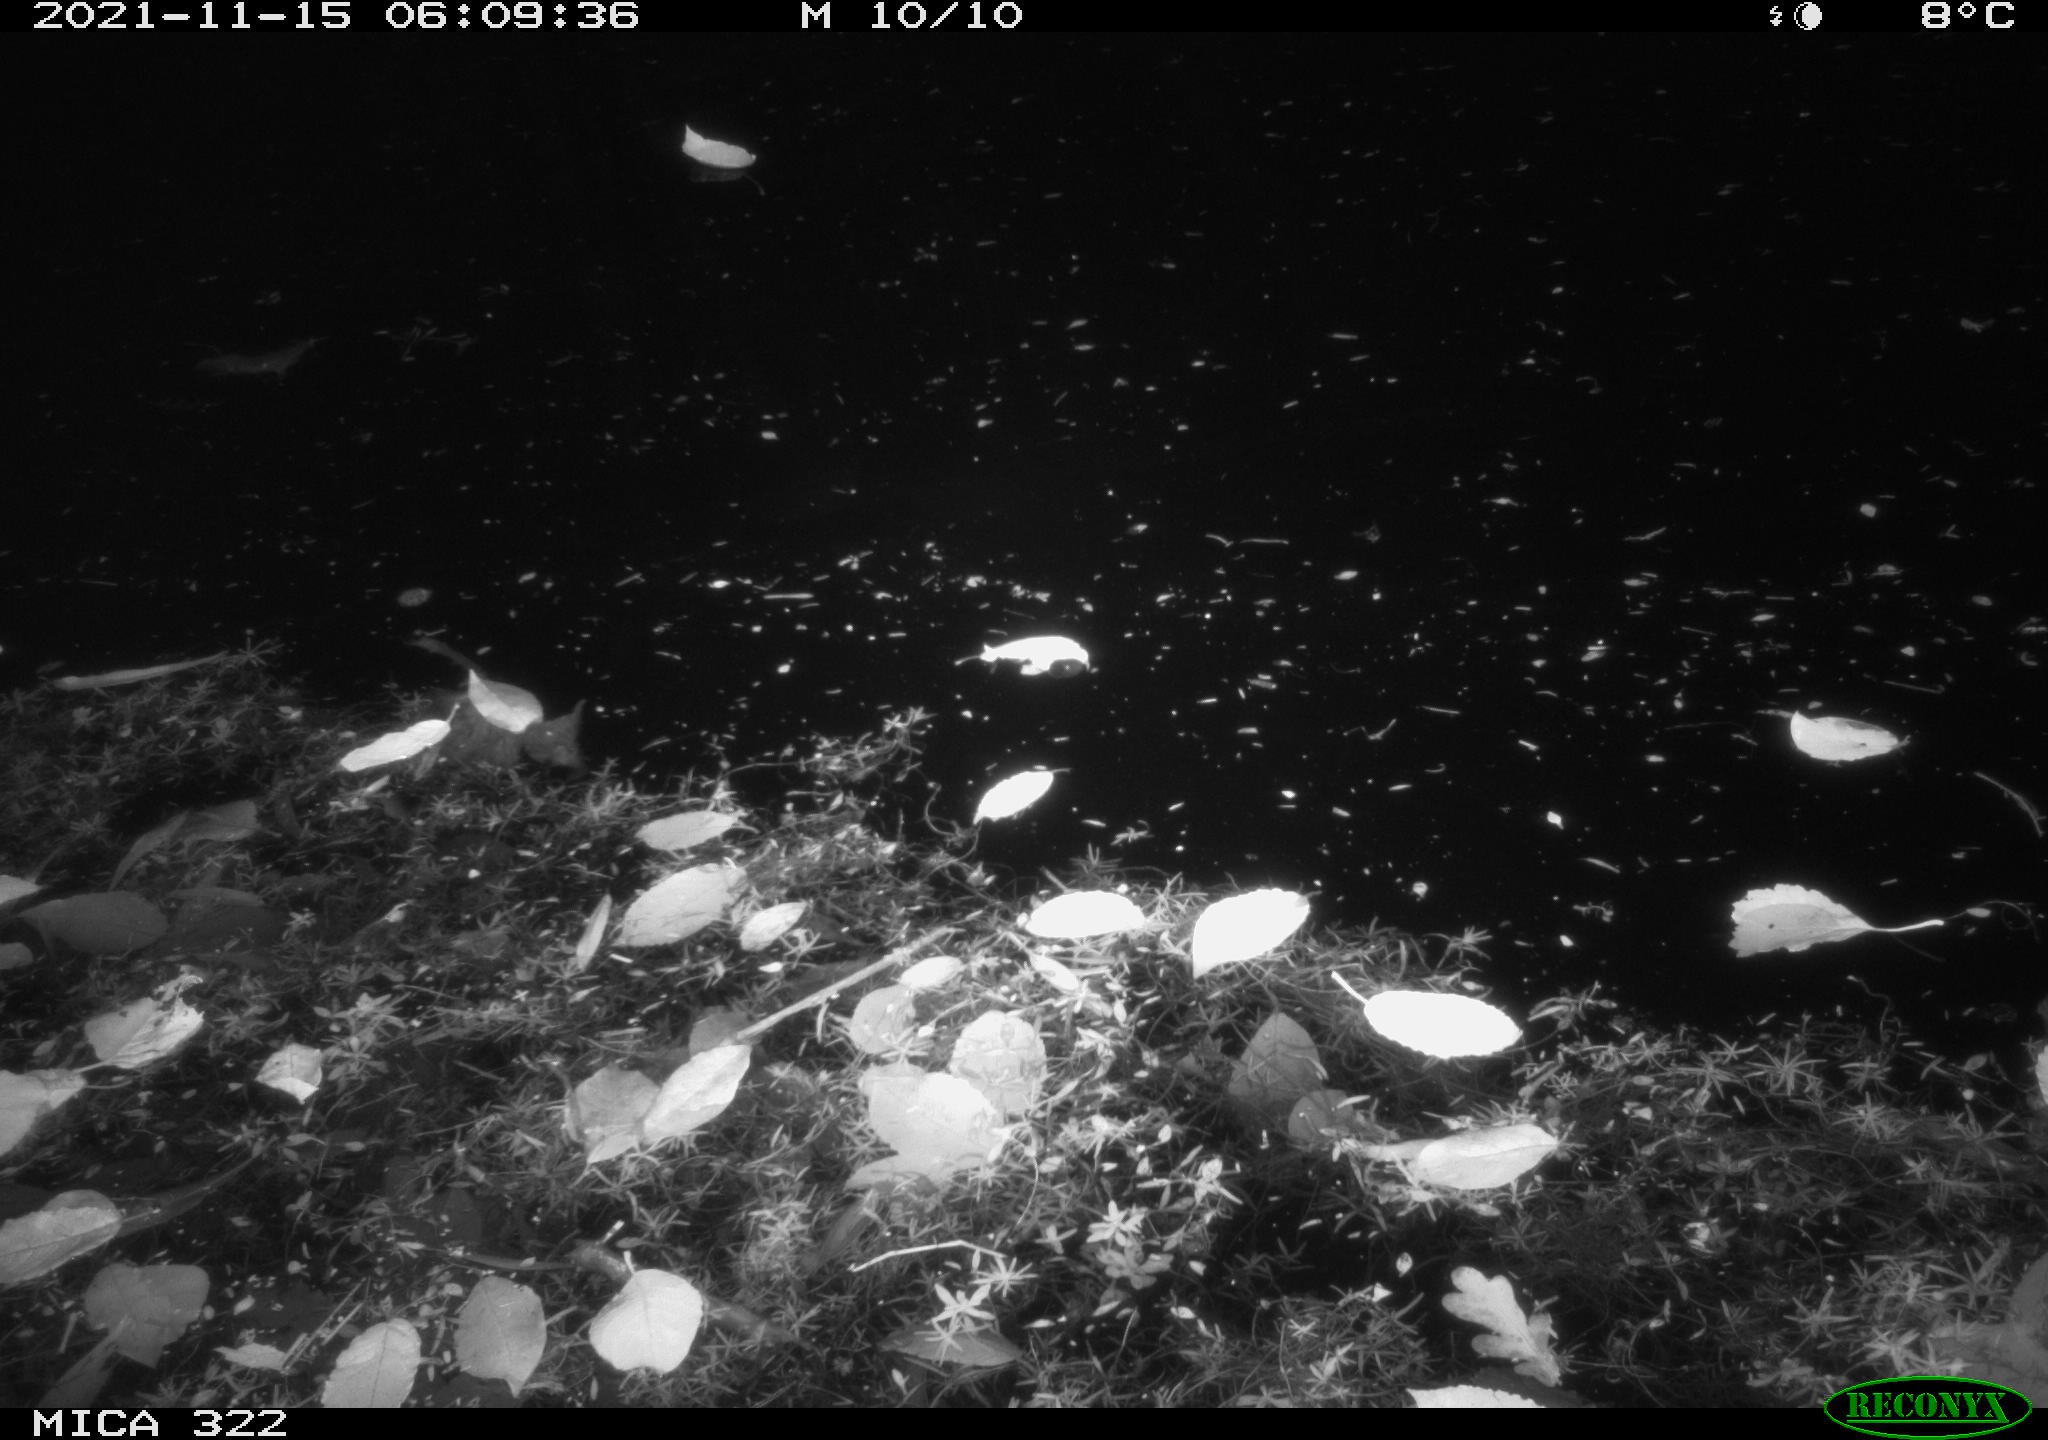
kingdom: Animalia
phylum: Chordata
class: Mammalia
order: Rodentia
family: Muridae
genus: Rattus
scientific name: Rattus norvegicus
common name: Brown rat
